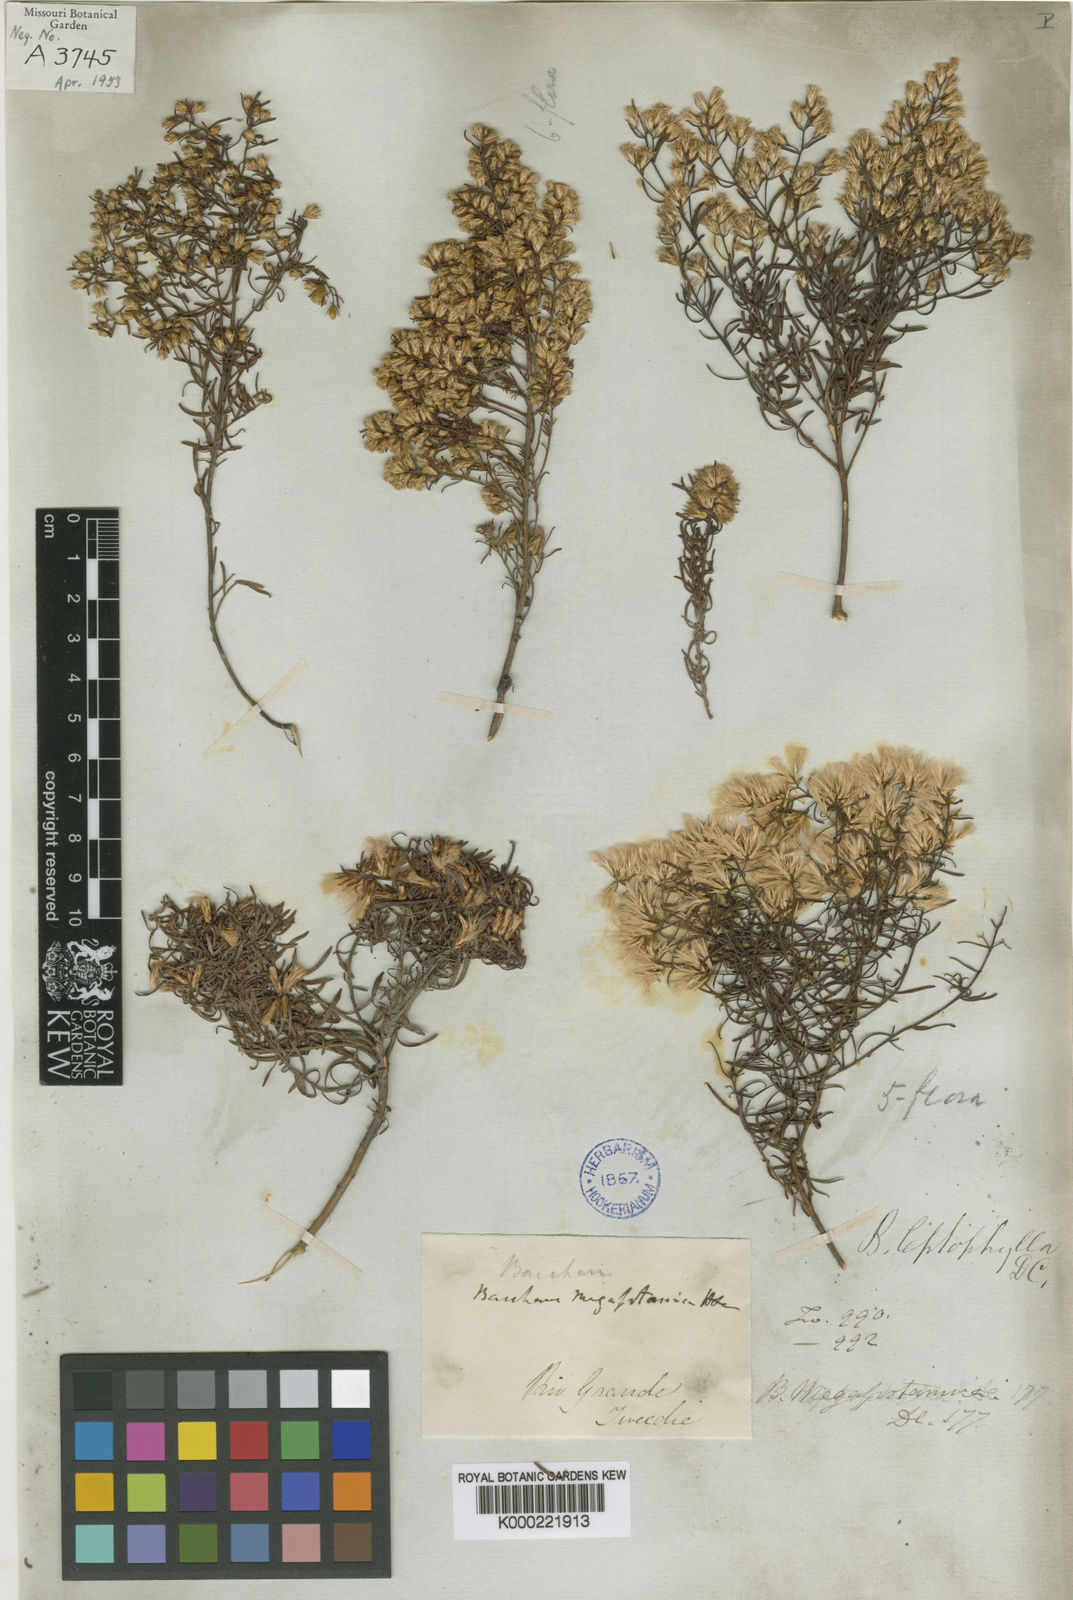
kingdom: Plantae
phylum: Tracheophyta
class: Magnoliopsida
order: Asterales
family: Asteraceae
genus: Baccharis
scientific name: Baccharis leptocephala
